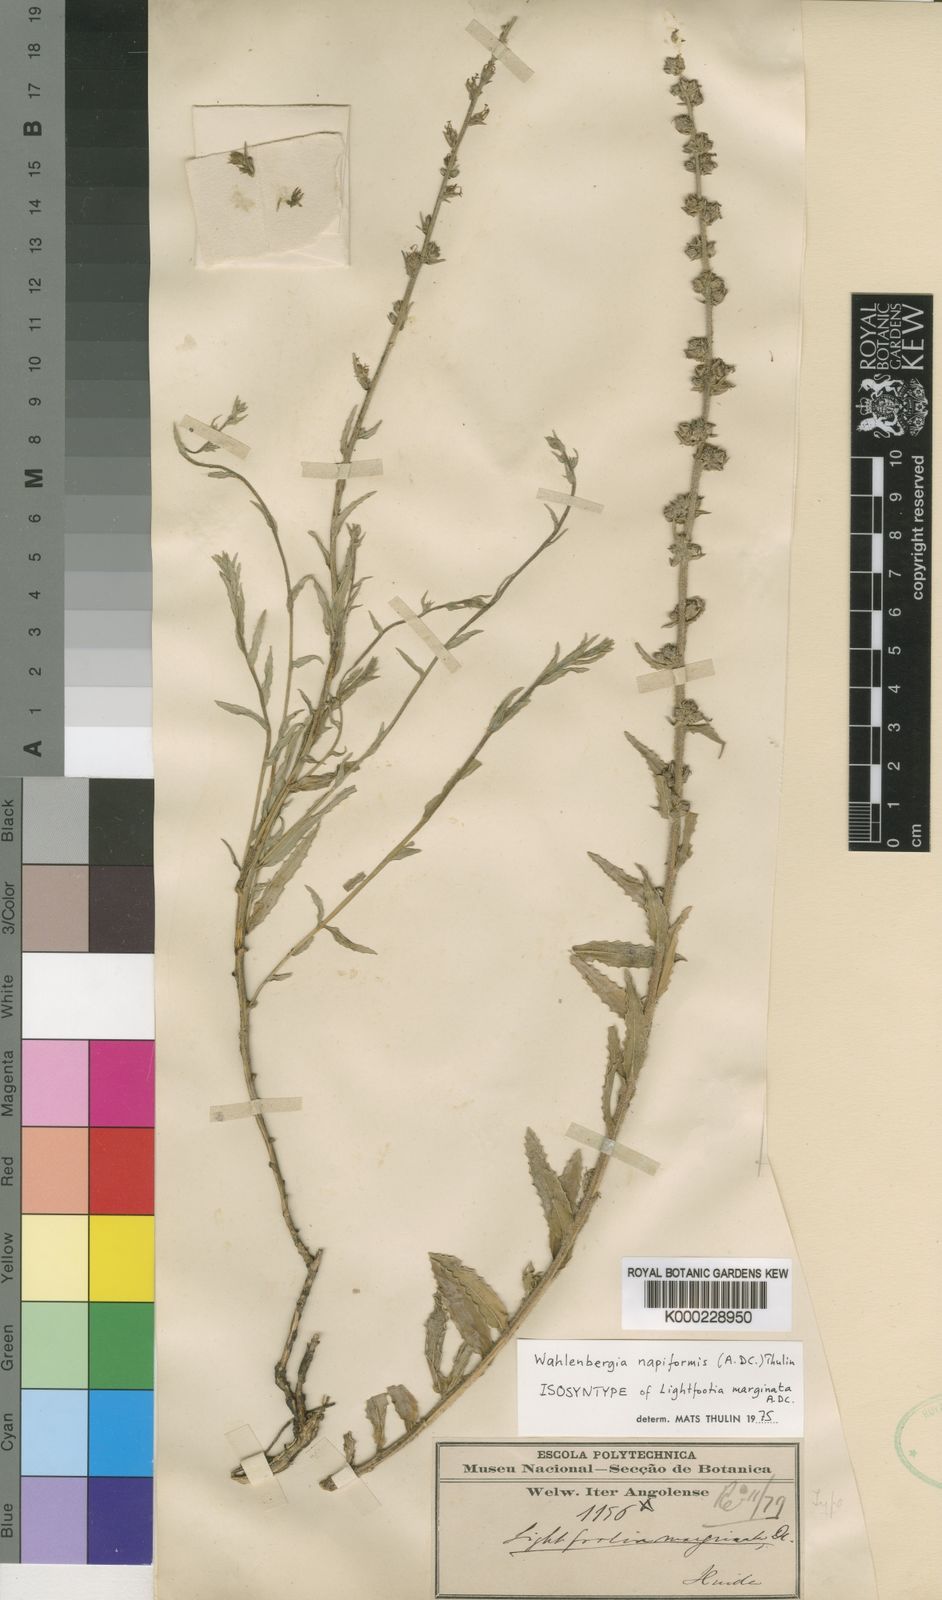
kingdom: Plantae
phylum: Tracheophyta
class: Magnoliopsida
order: Asterales
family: Campanulaceae
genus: Wahlenbergia
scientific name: Wahlenbergia napiformis
